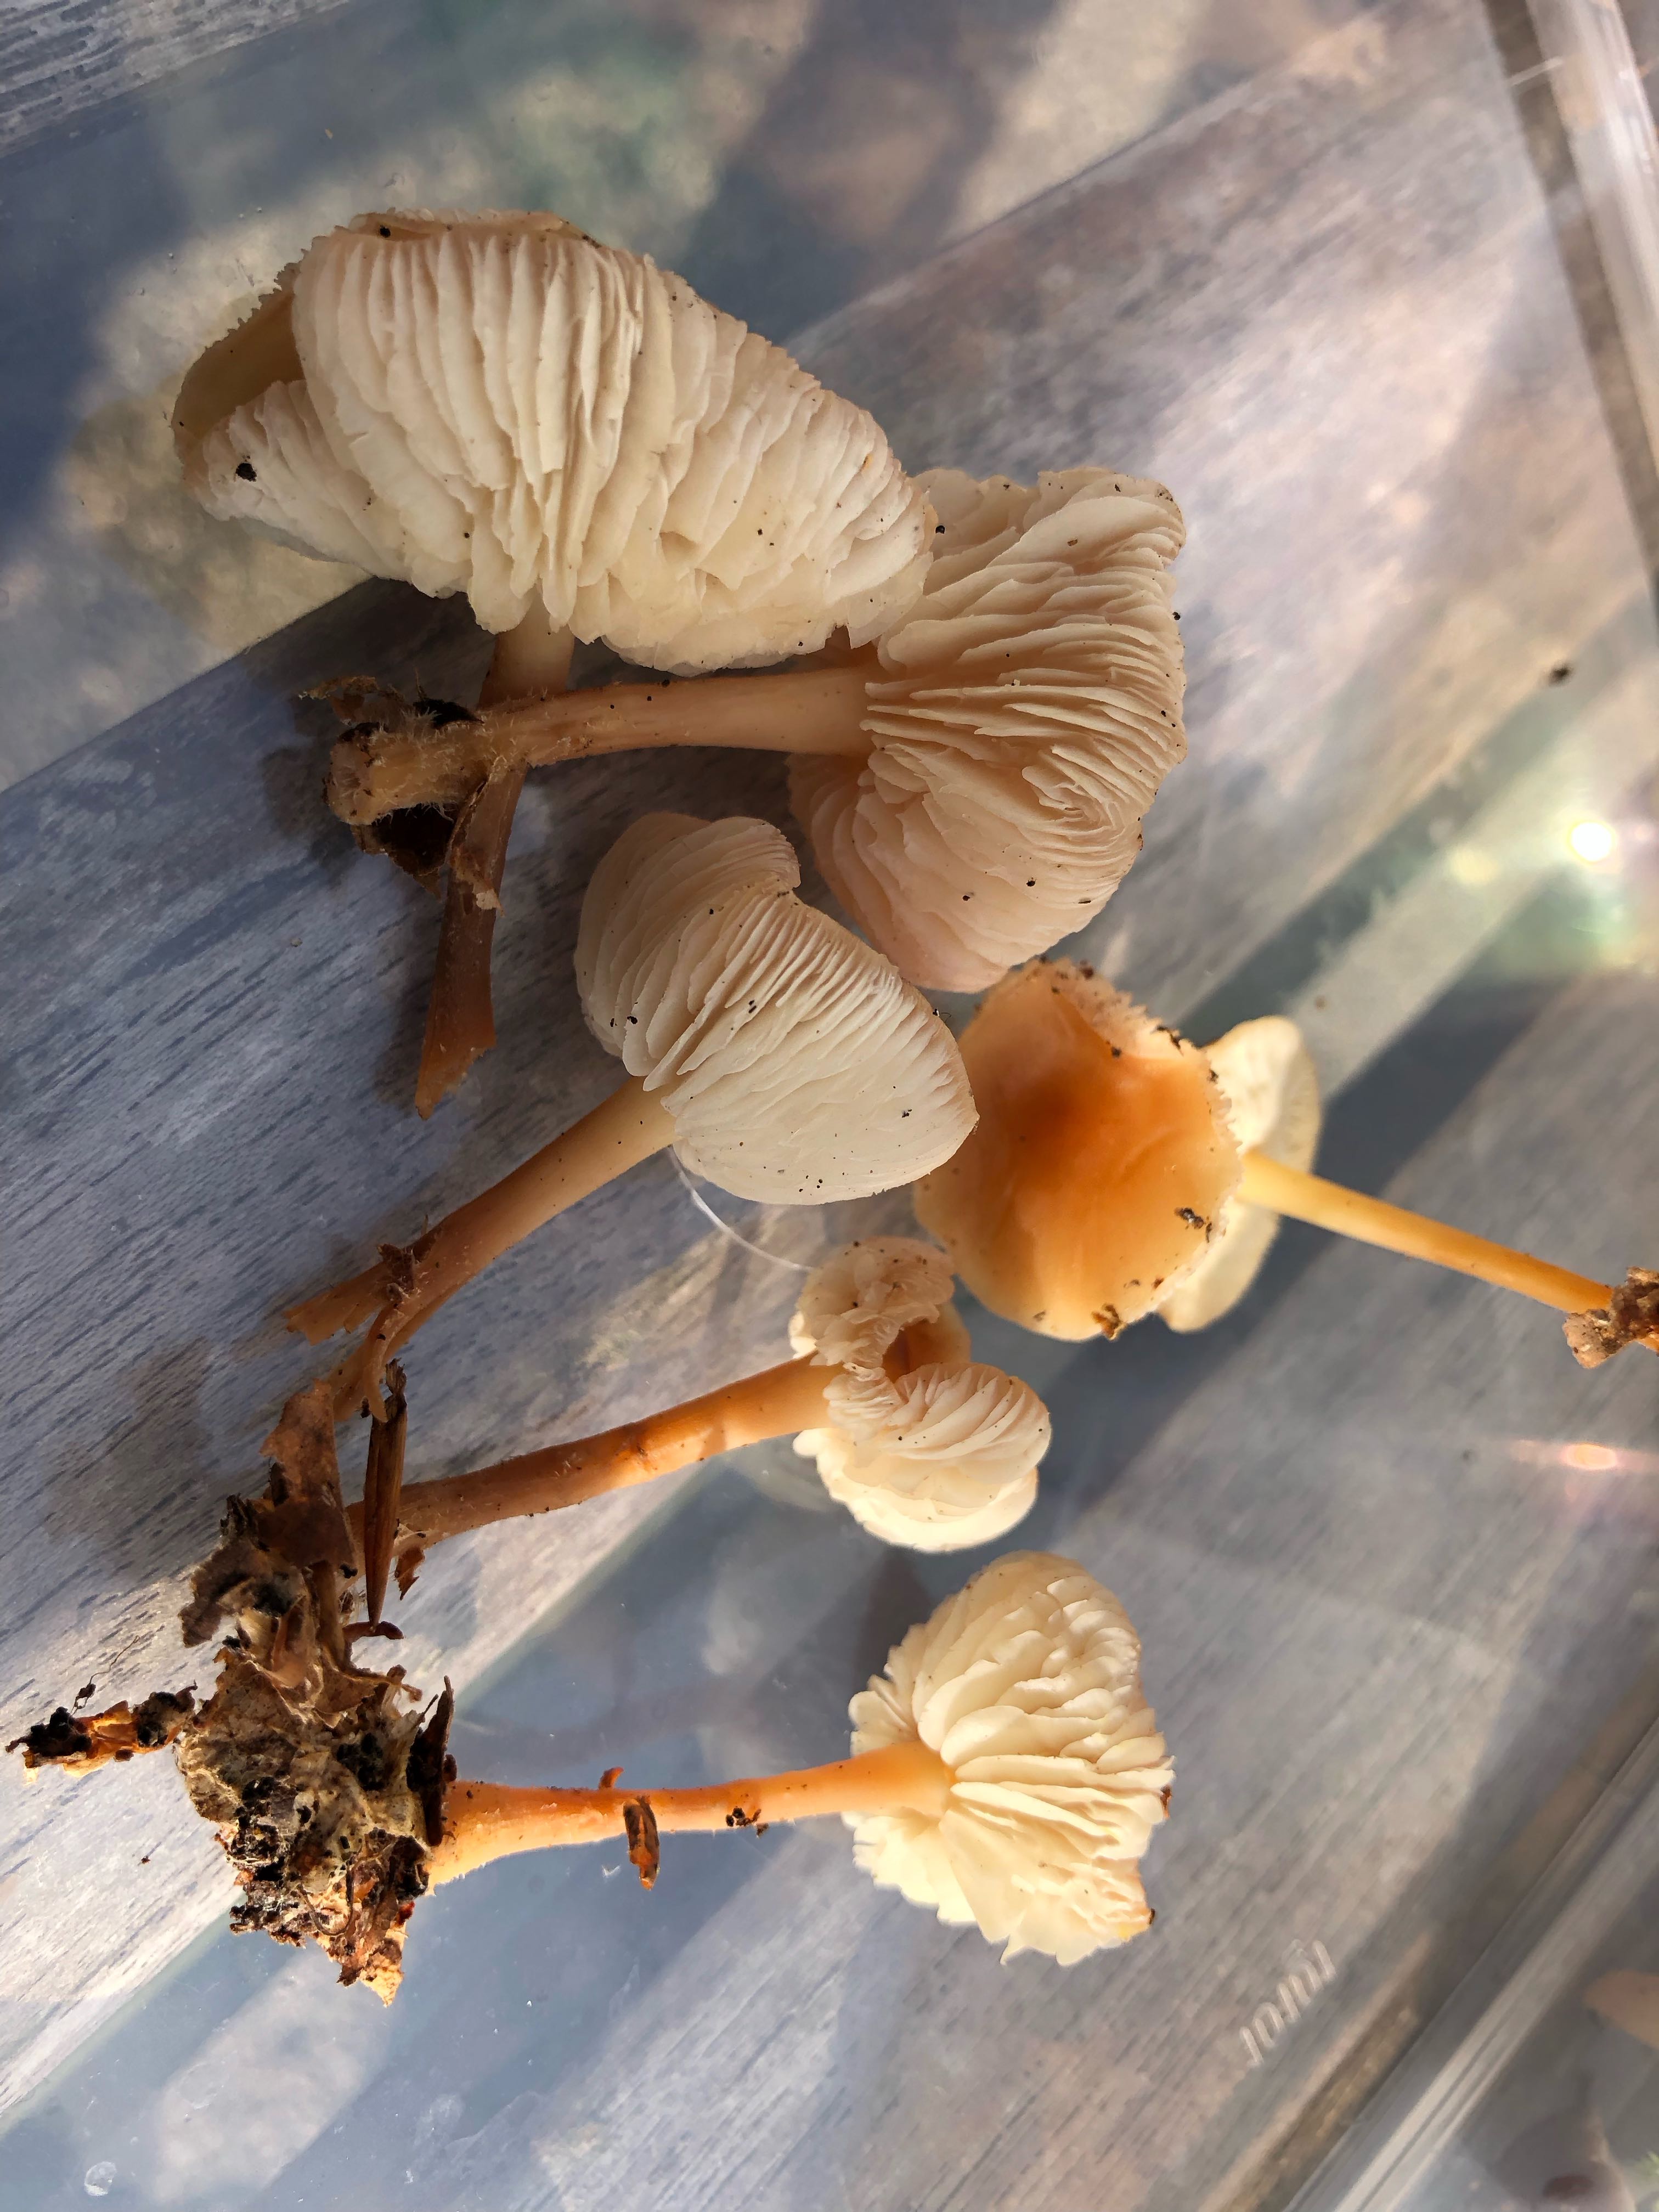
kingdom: Fungi
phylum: Basidiomycota
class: Agaricomycetes
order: Agaricales
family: Omphalotaceae
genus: Gymnopus
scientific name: Gymnopus dryophilus
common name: løv-fladhat
